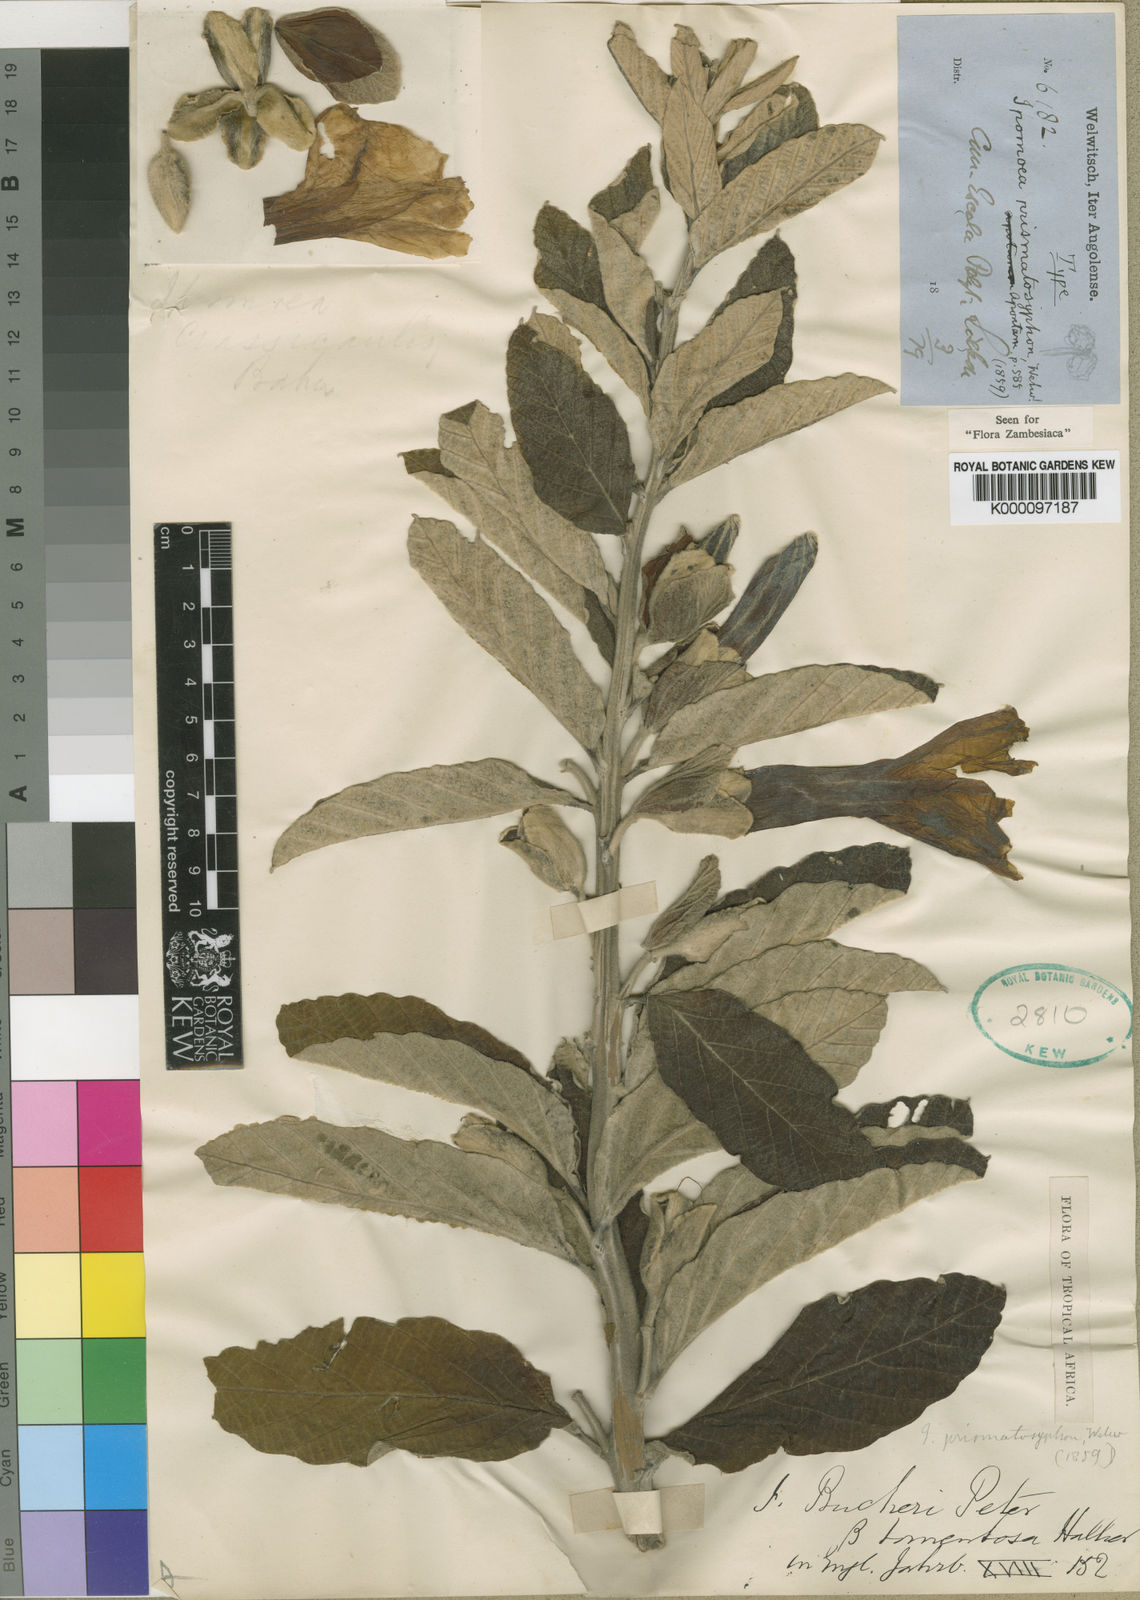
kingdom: Plantae
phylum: Tracheophyta
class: Magnoliopsida
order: Solanales
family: Convolvulaceae
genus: Ipomoea
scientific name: Ipomoea prismatosyphon
